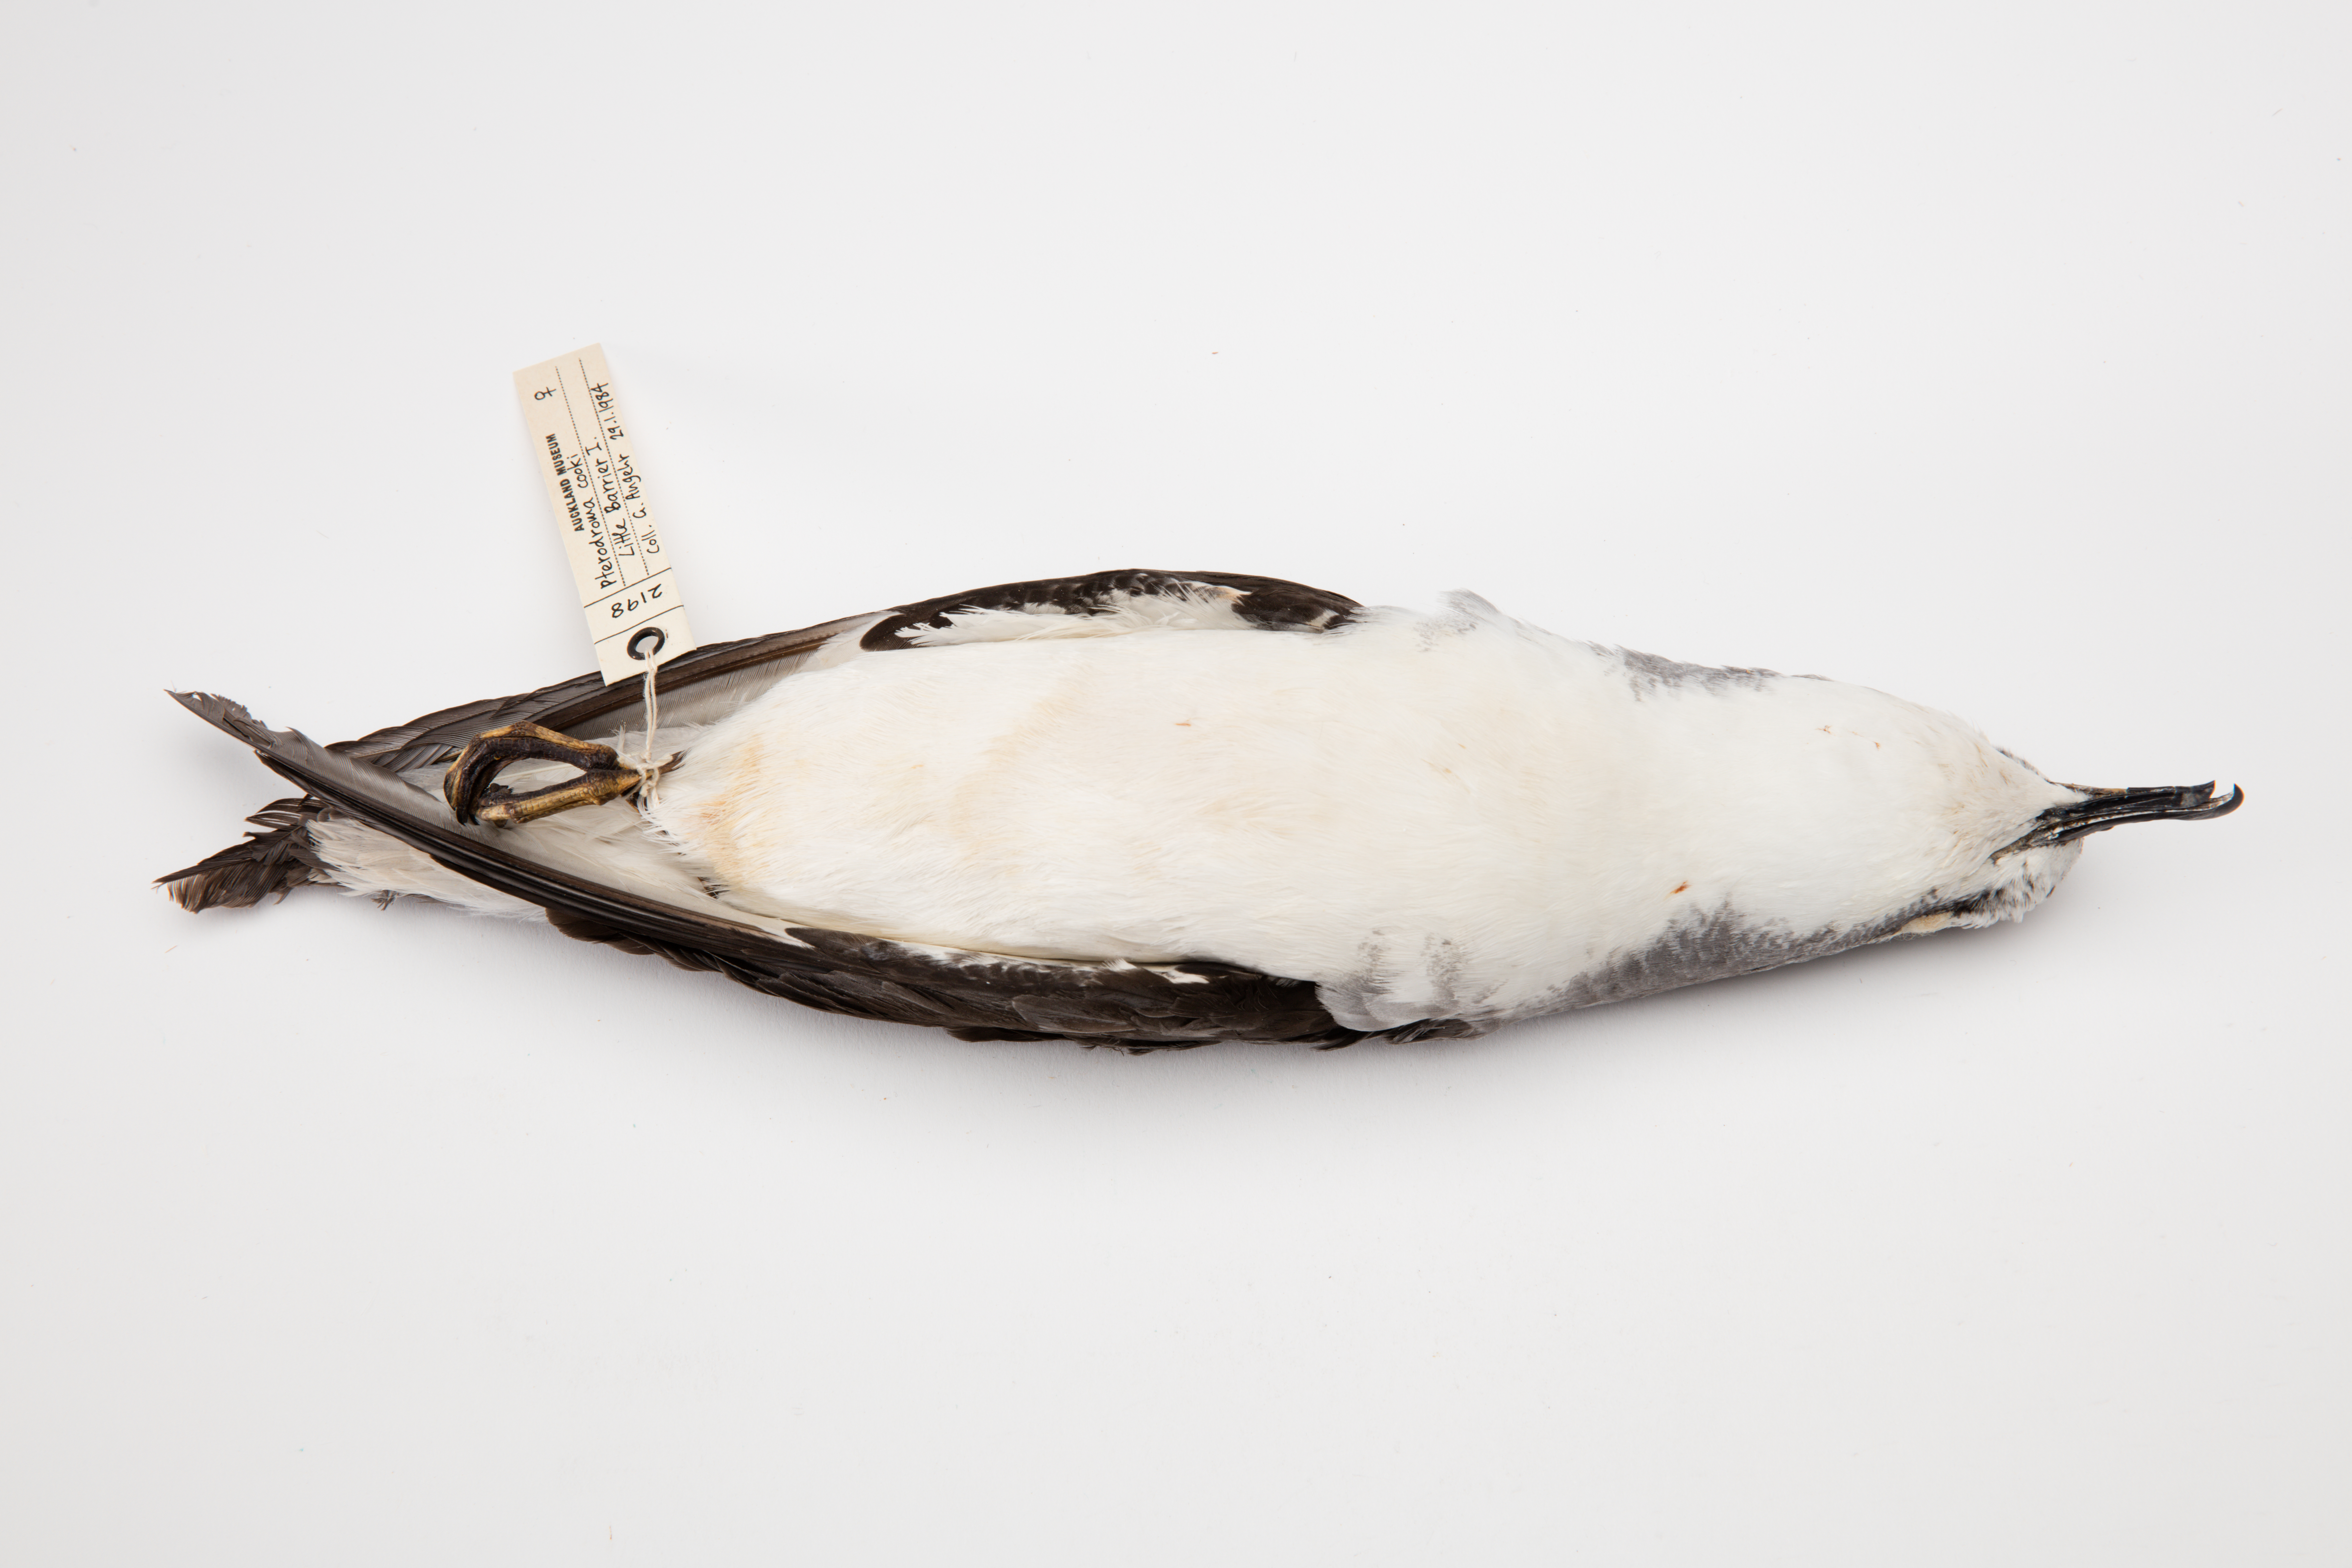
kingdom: Animalia
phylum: Chordata
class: Aves
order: Procellariiformes
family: Procellariidae
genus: Pterodroma
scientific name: Pterodroma cookii
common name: Cook's petrel
